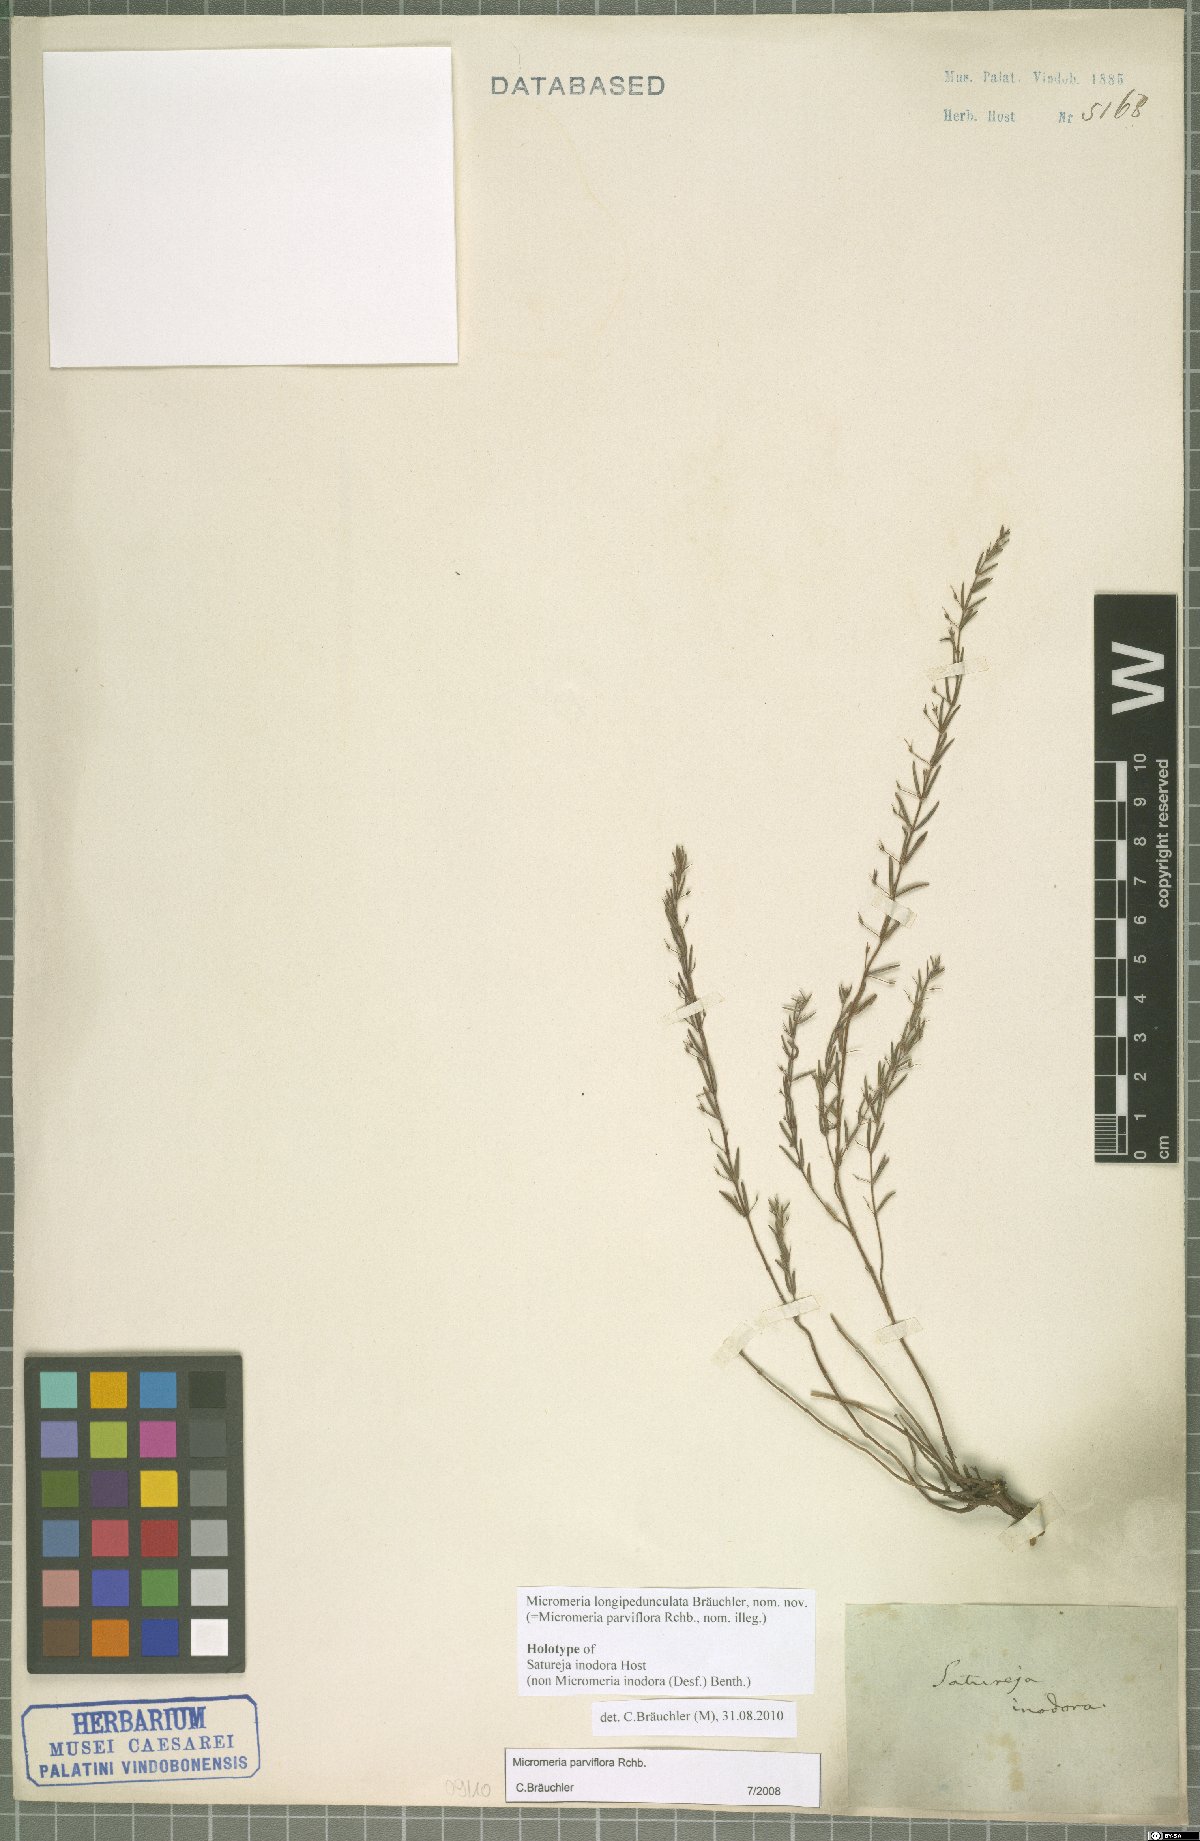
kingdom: Plantae
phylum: Tracheophyta
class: Magnoliopsida
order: Lamiales
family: Lamiaceae
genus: Micromeria
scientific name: Micromeria longipedunculata
